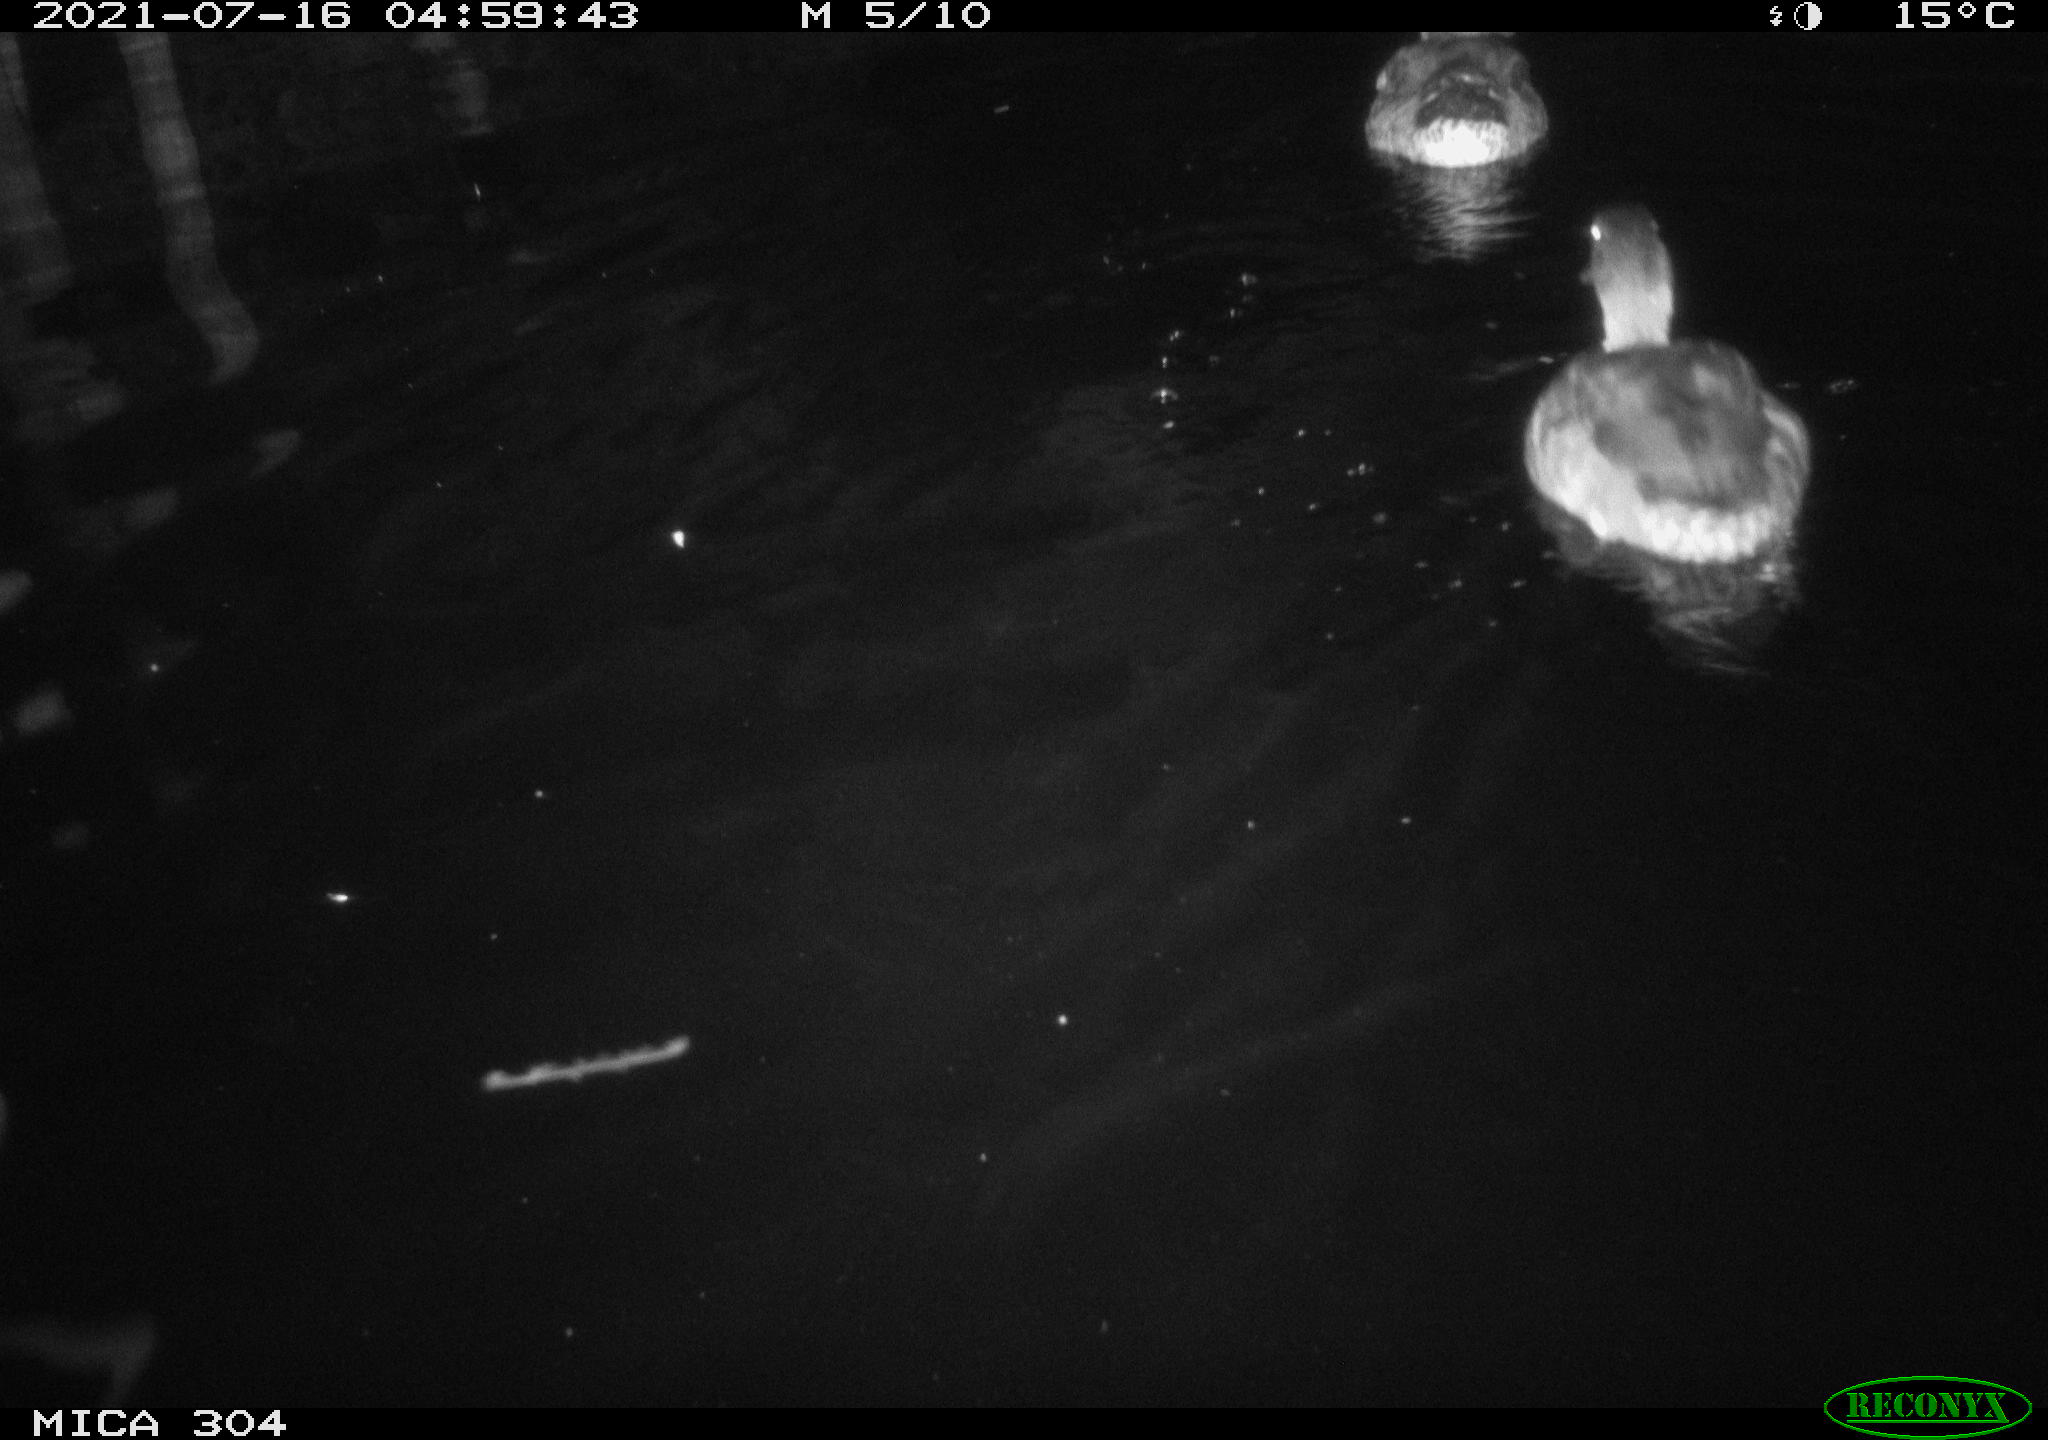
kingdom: Animalia
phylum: Chordata
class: Aves
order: Anseriformes
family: Anatidae
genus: Anas
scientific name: Anas platyrhynchos
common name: Mallard
